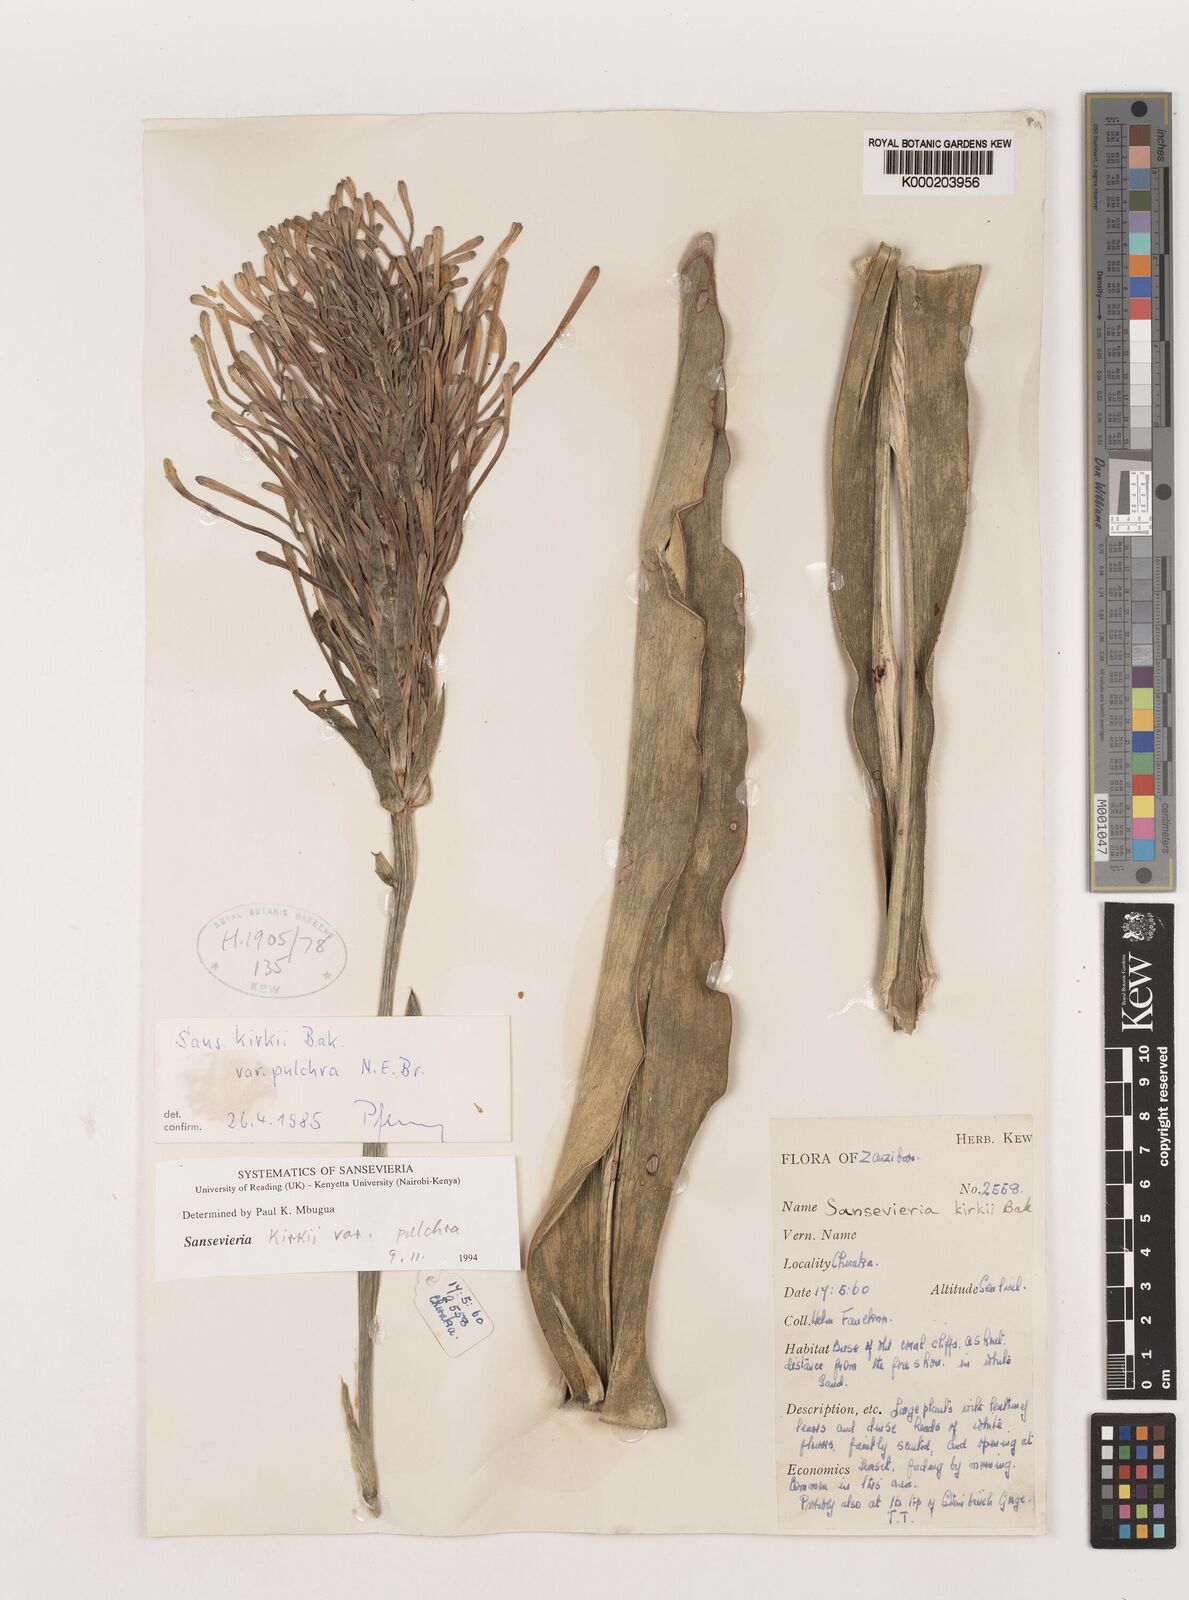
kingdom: Plantae
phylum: Tracheophyta
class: Liliopsida
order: Asparagales
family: Asparagaceae
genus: Dracaena
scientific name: Dracaena pethera
